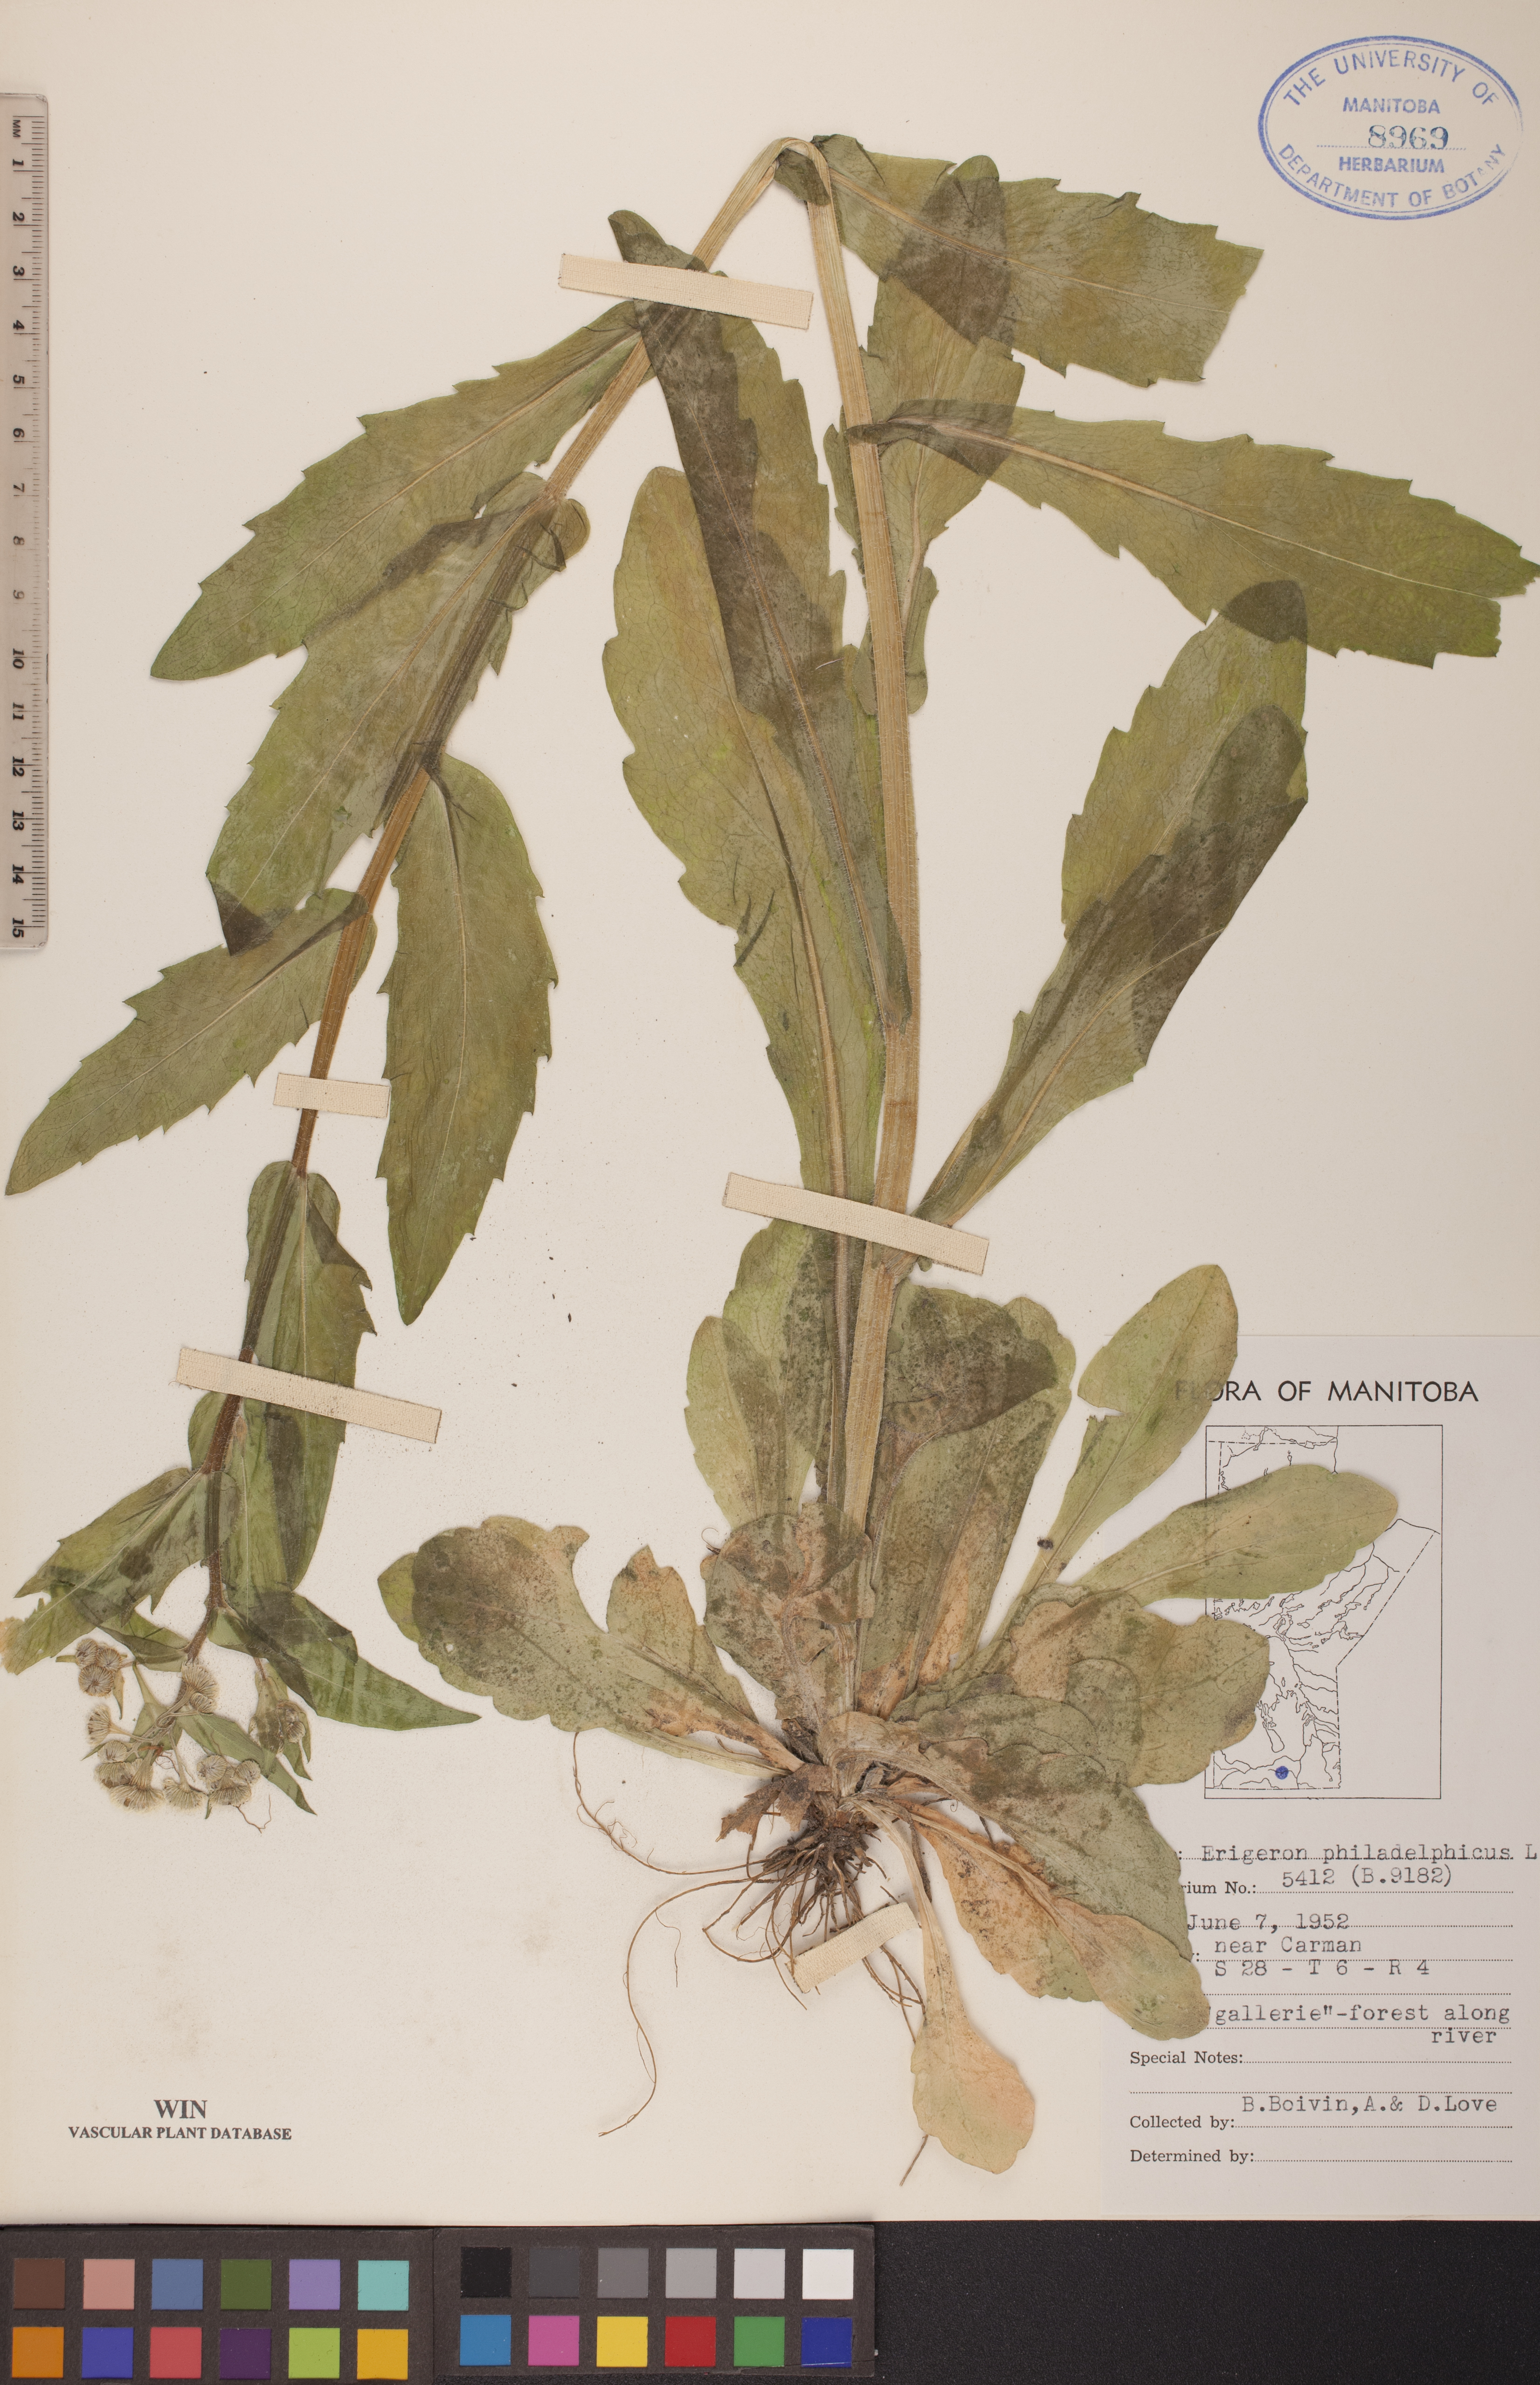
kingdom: Plantae
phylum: Tracheophyta
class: Magnoliopsida
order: Asterales
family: Asteraceae
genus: Erigeron
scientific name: Erigeron philadelphicus
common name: Robin's-plantain
